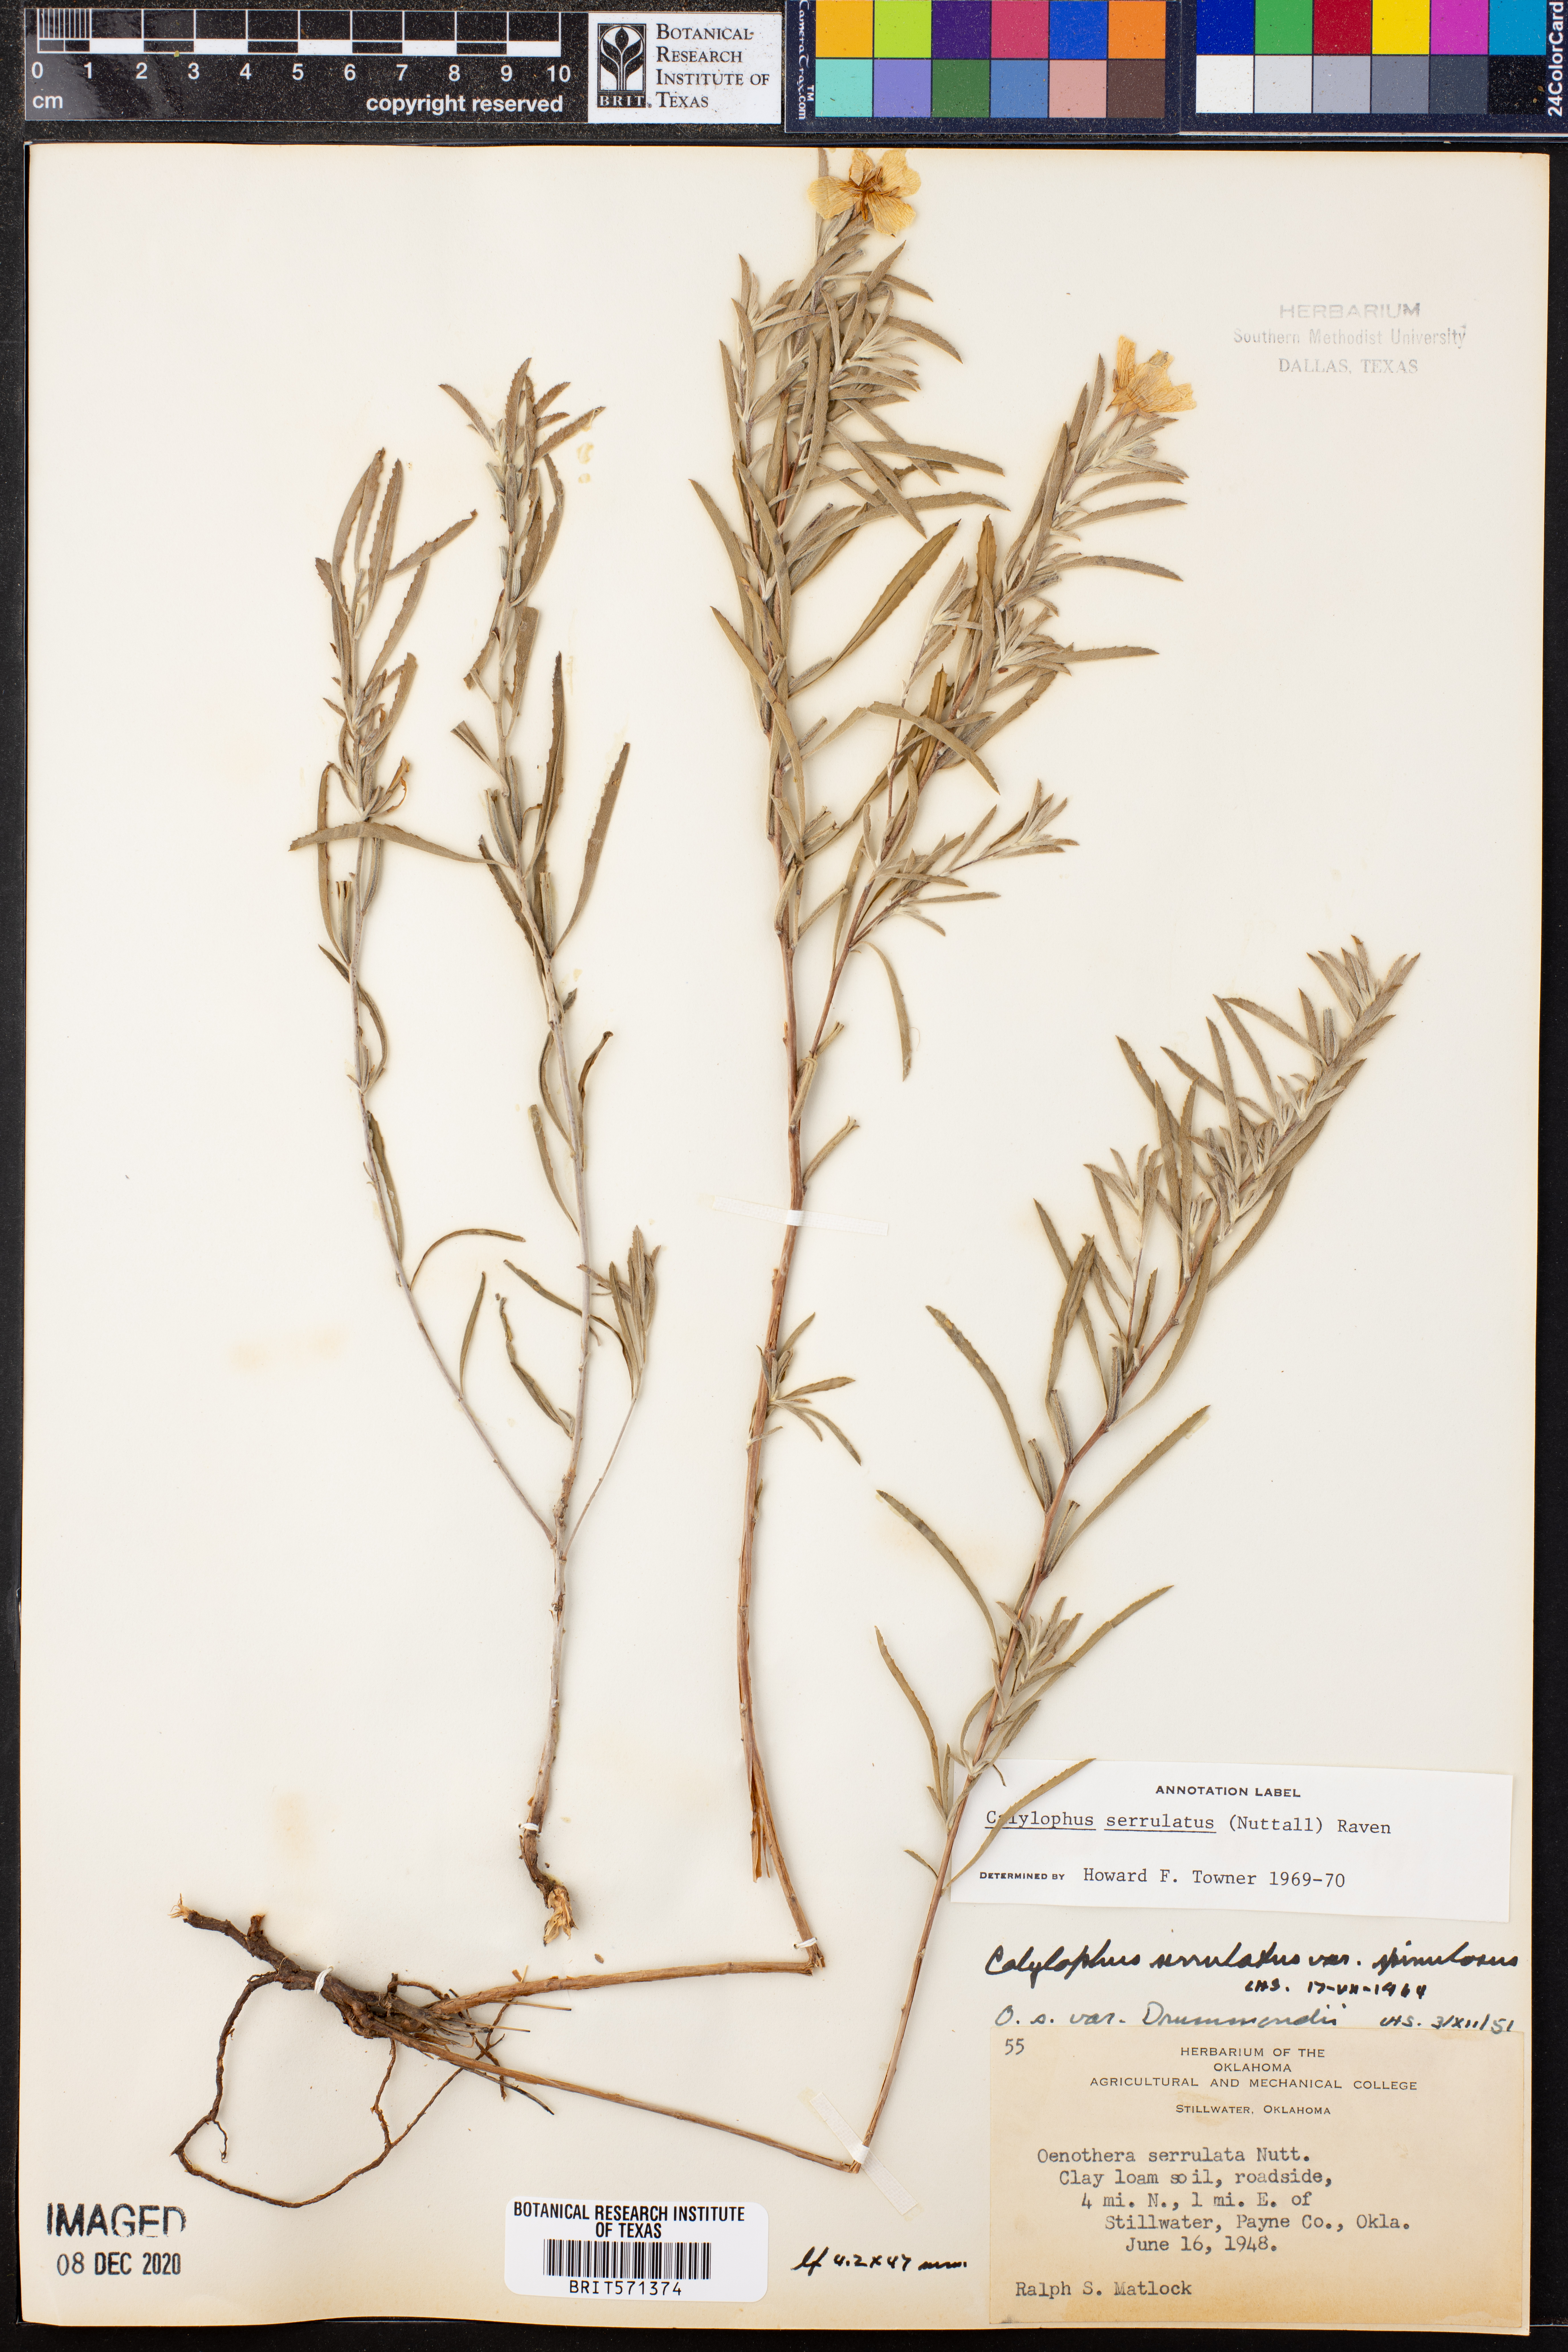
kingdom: Plantae
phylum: Tracheophyta
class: Magnoliopsida
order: Myrtales
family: Onagraceae
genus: Oenothera
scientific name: Oenothera serrulata
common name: Half-shrub calylophus
